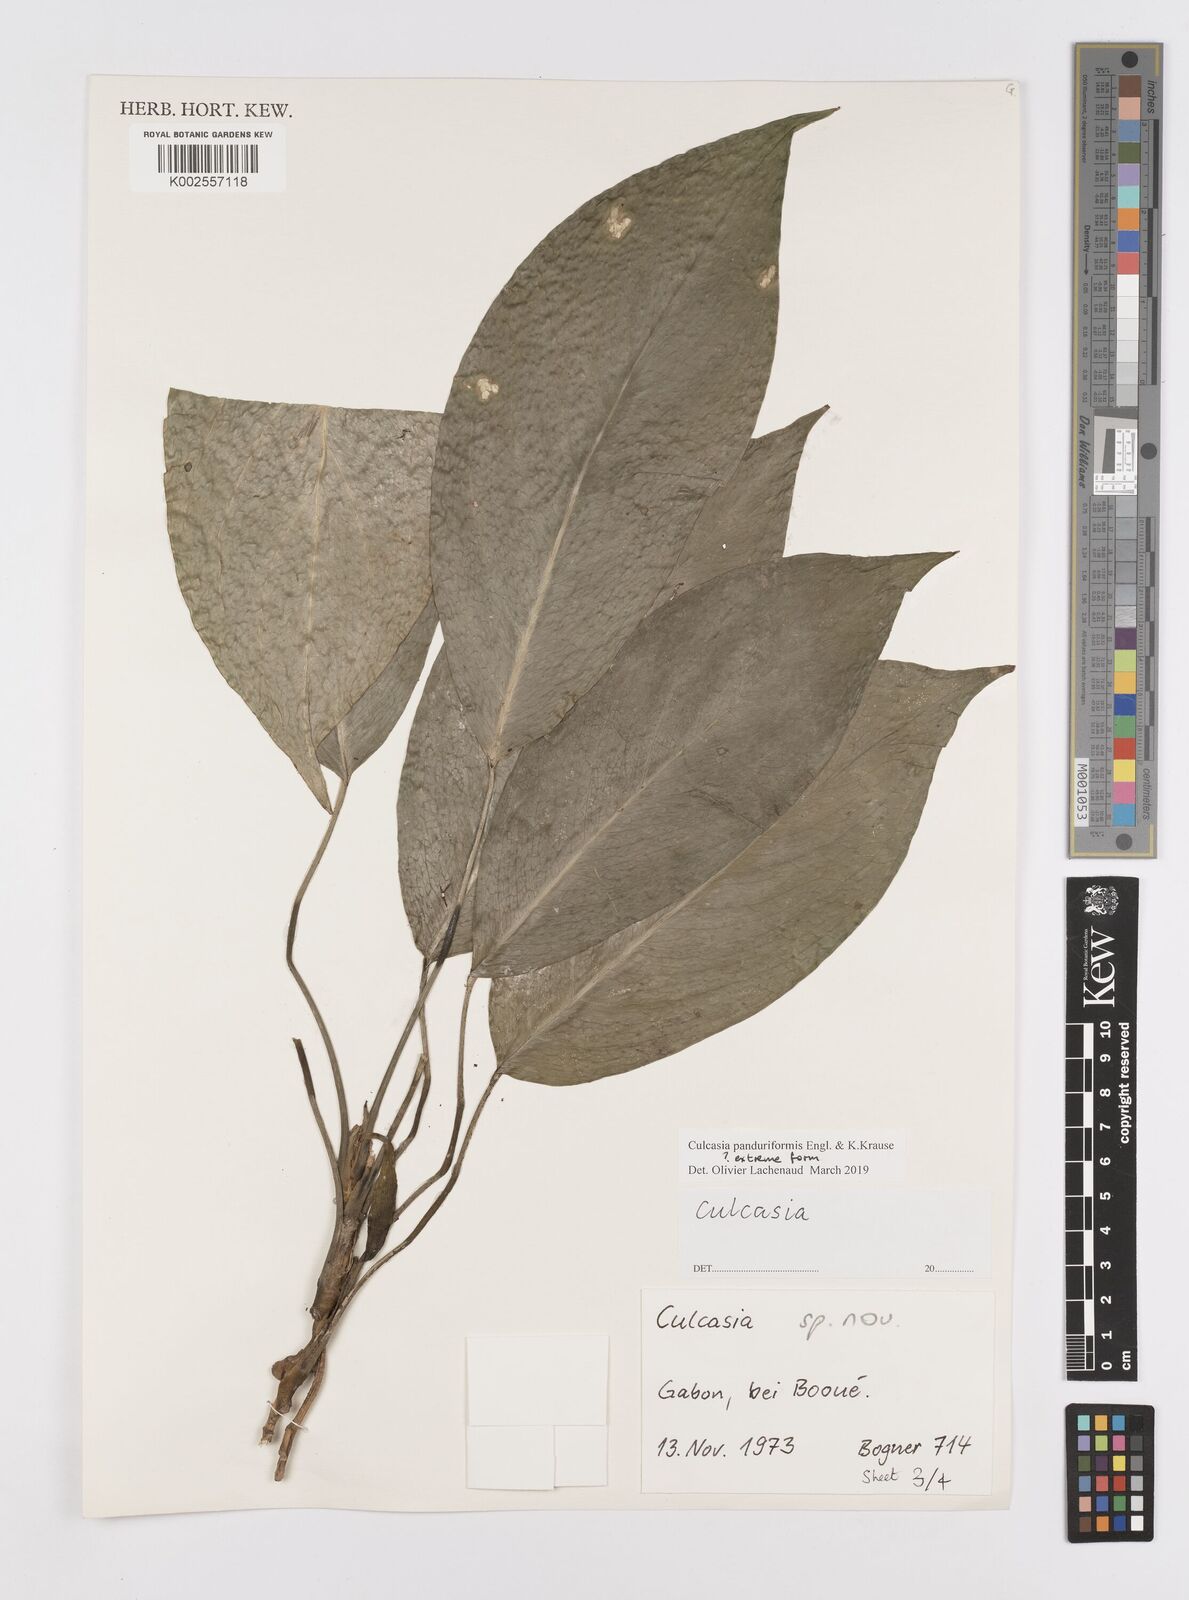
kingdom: Plantae
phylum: Tracheophyta
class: Liliopsida
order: Alismatales
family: Araceae
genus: Culcasia
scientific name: Culcasia panduriformis
